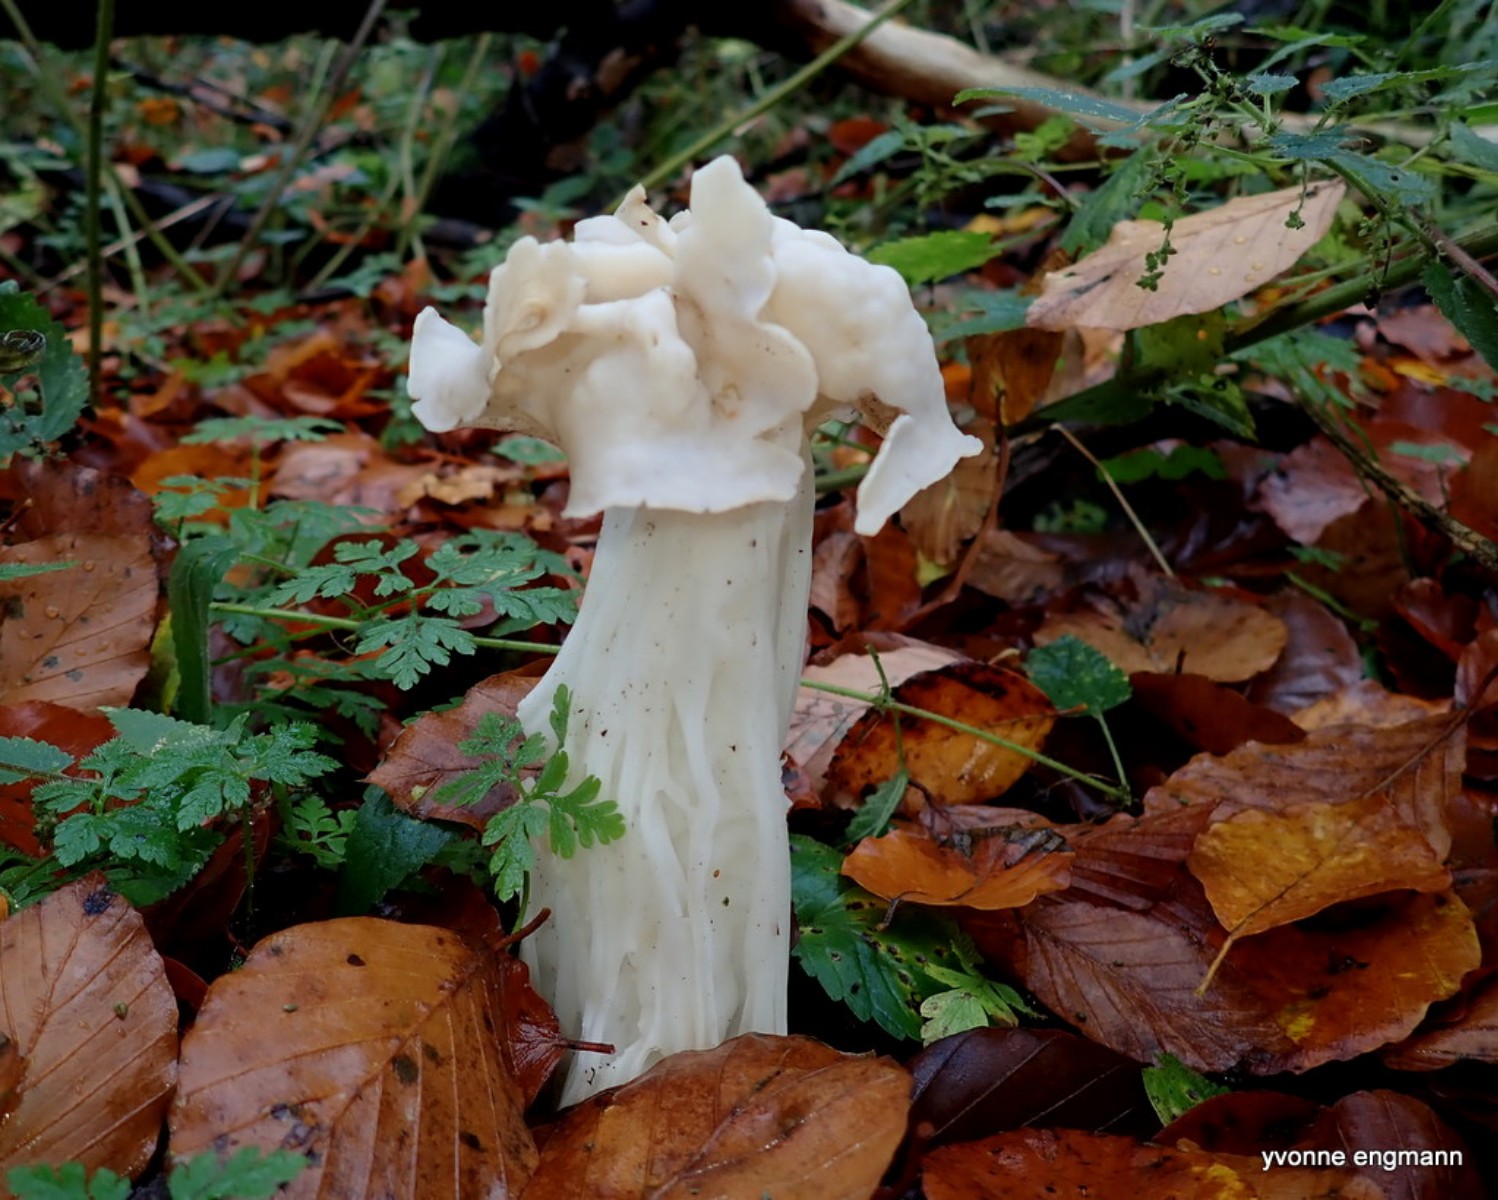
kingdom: Fungi
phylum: Ascomycota
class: Pezizomycetes
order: Pezizales
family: Helvellaceae
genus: Helvella
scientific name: Helvella crispa
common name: kruset foldhat
